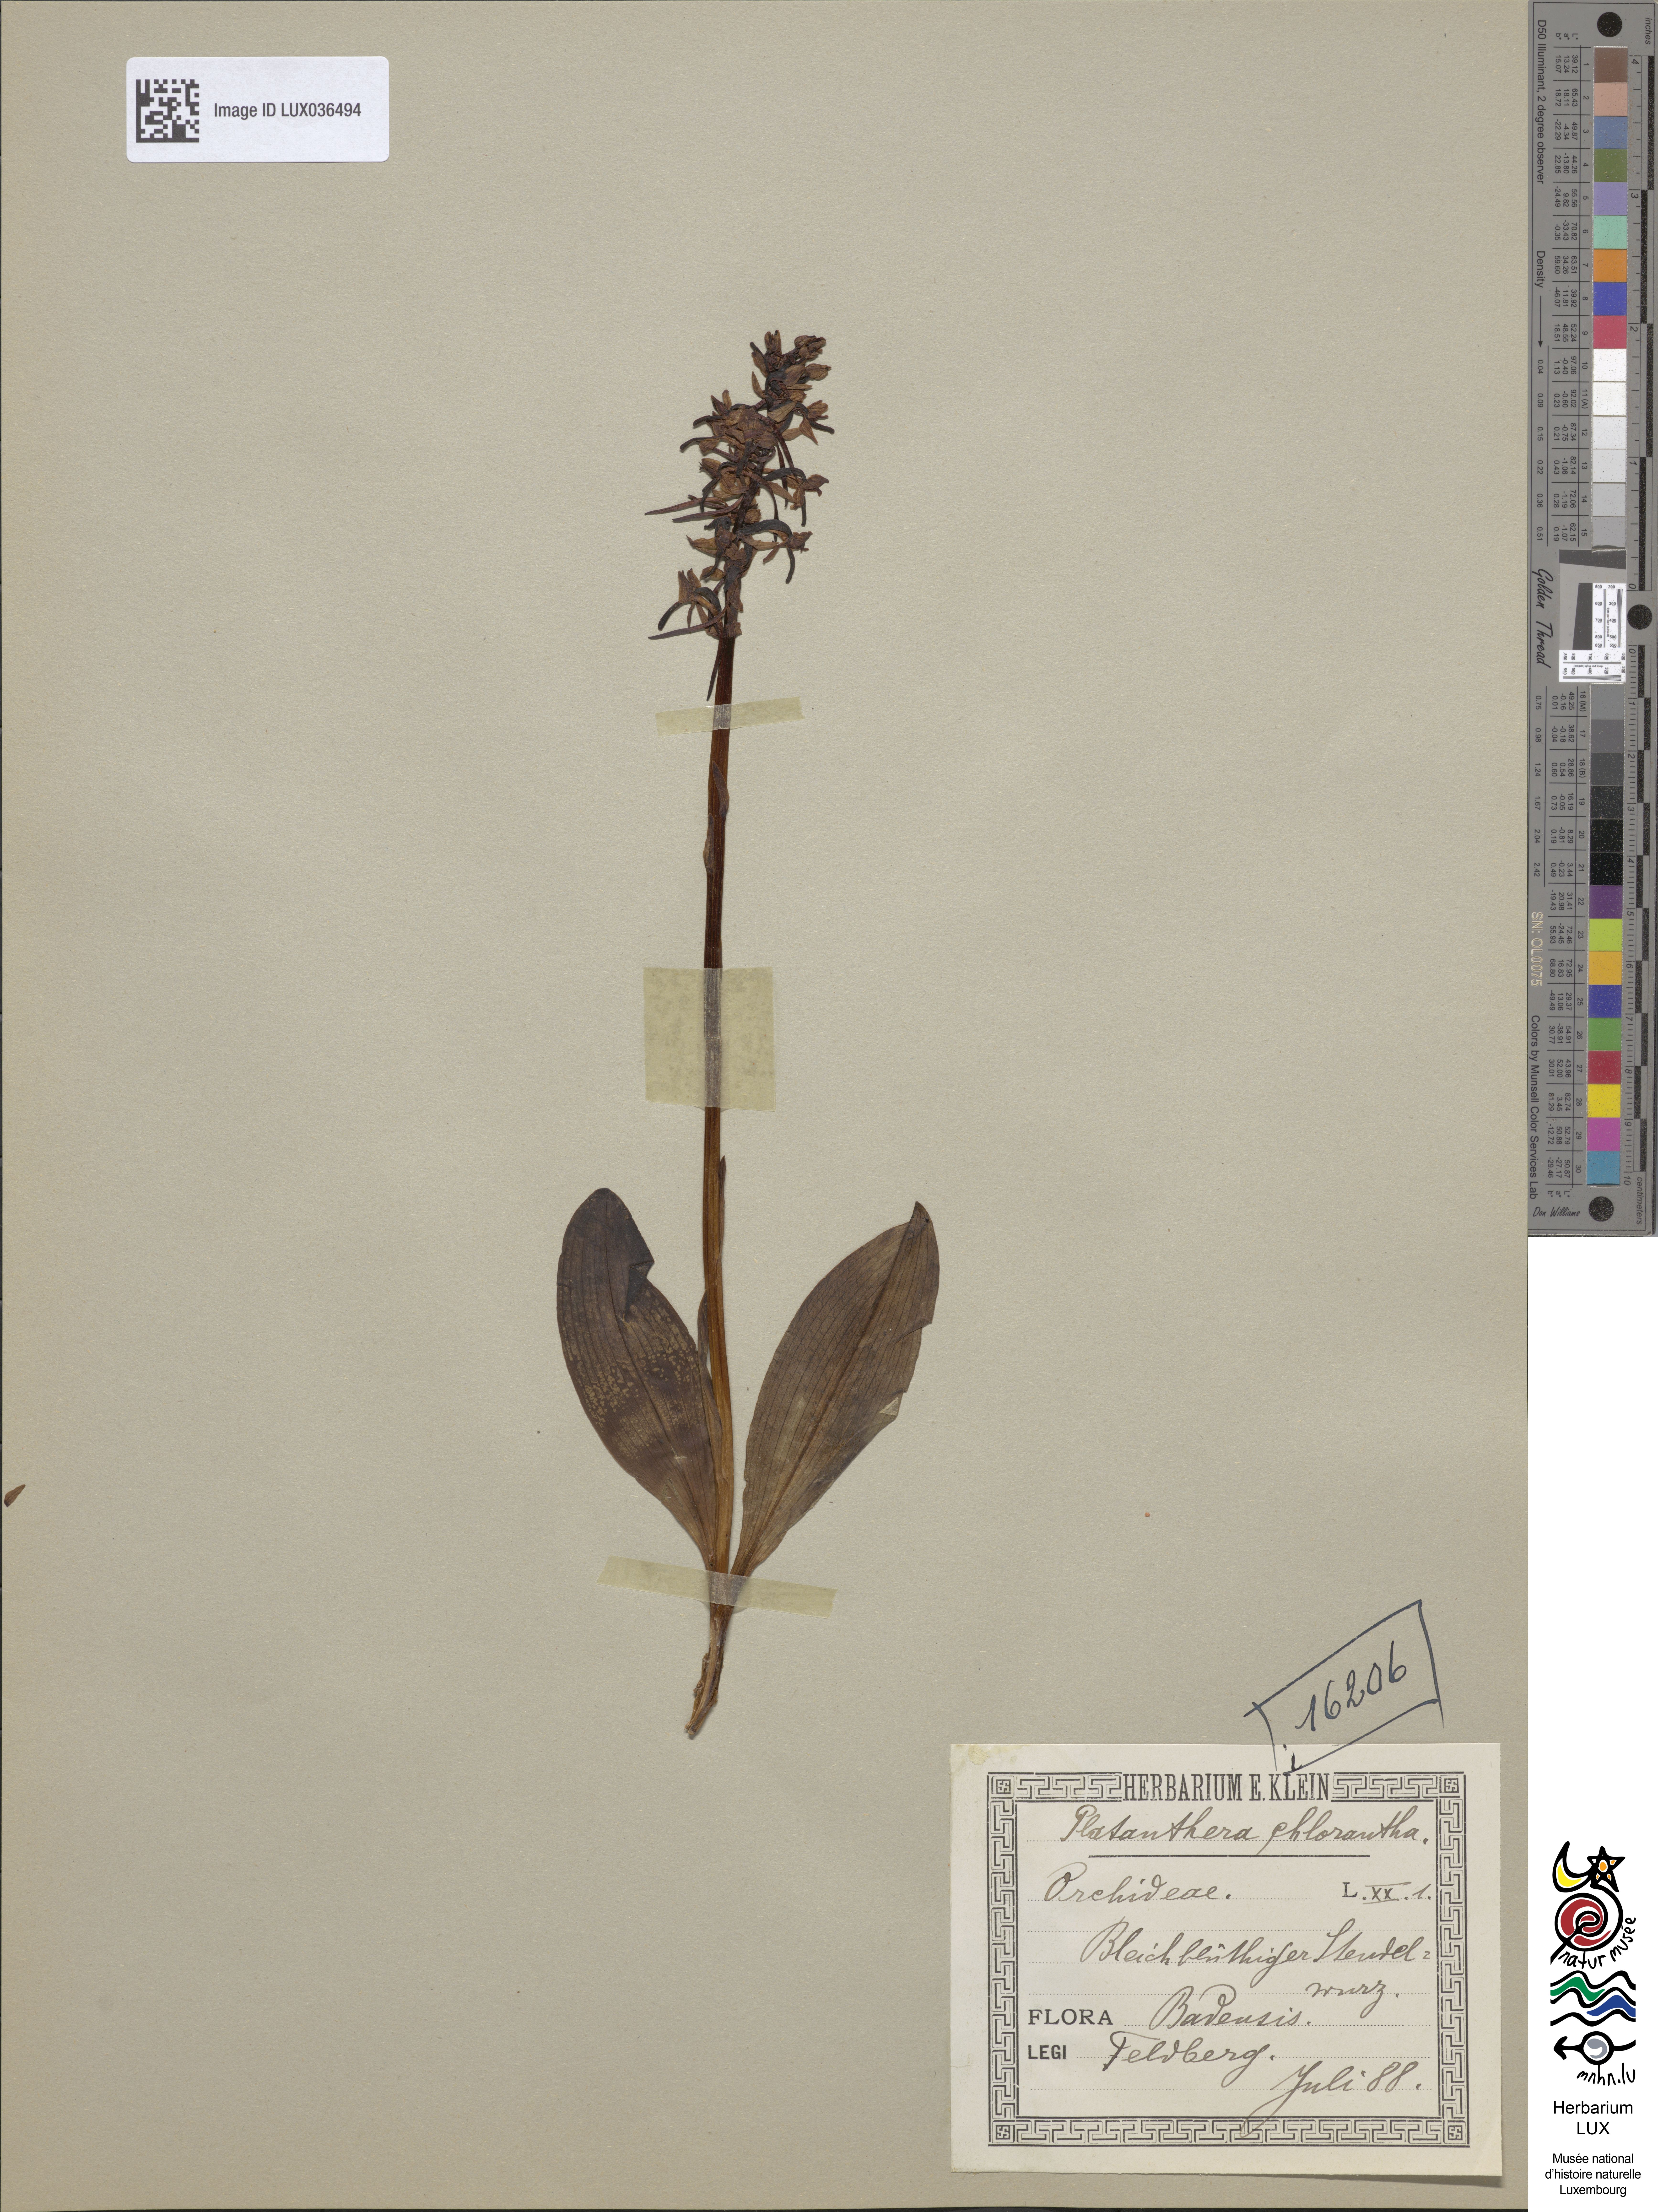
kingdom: Plantae
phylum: Tracheophyta
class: Liliopsida
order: Asparagales
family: Orchidaceae
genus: Platanthera
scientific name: Platanthera chlorantha
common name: Greater butterfly-orchid
